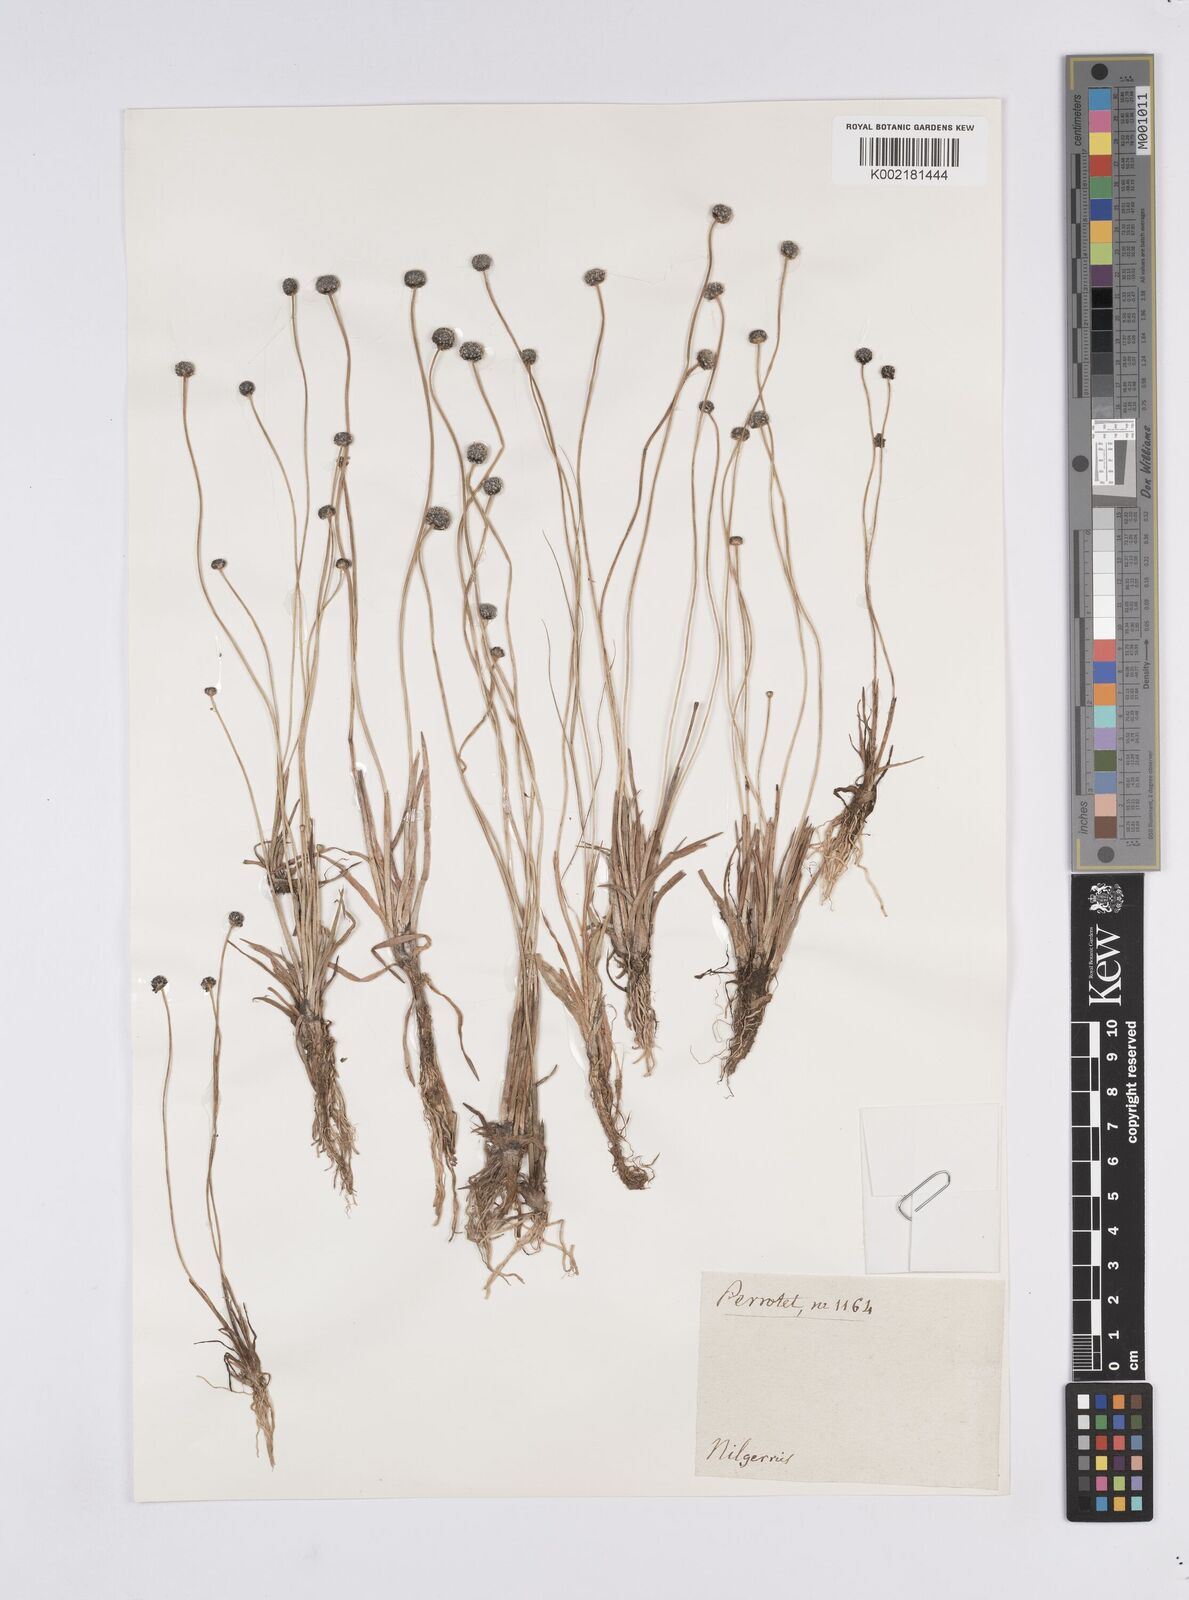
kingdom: Plantae
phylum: Tracheophyta
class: Liliopsida
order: Poales
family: Eriocaulaceae
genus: Eriocaulon
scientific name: Eriocaulon odoratum
